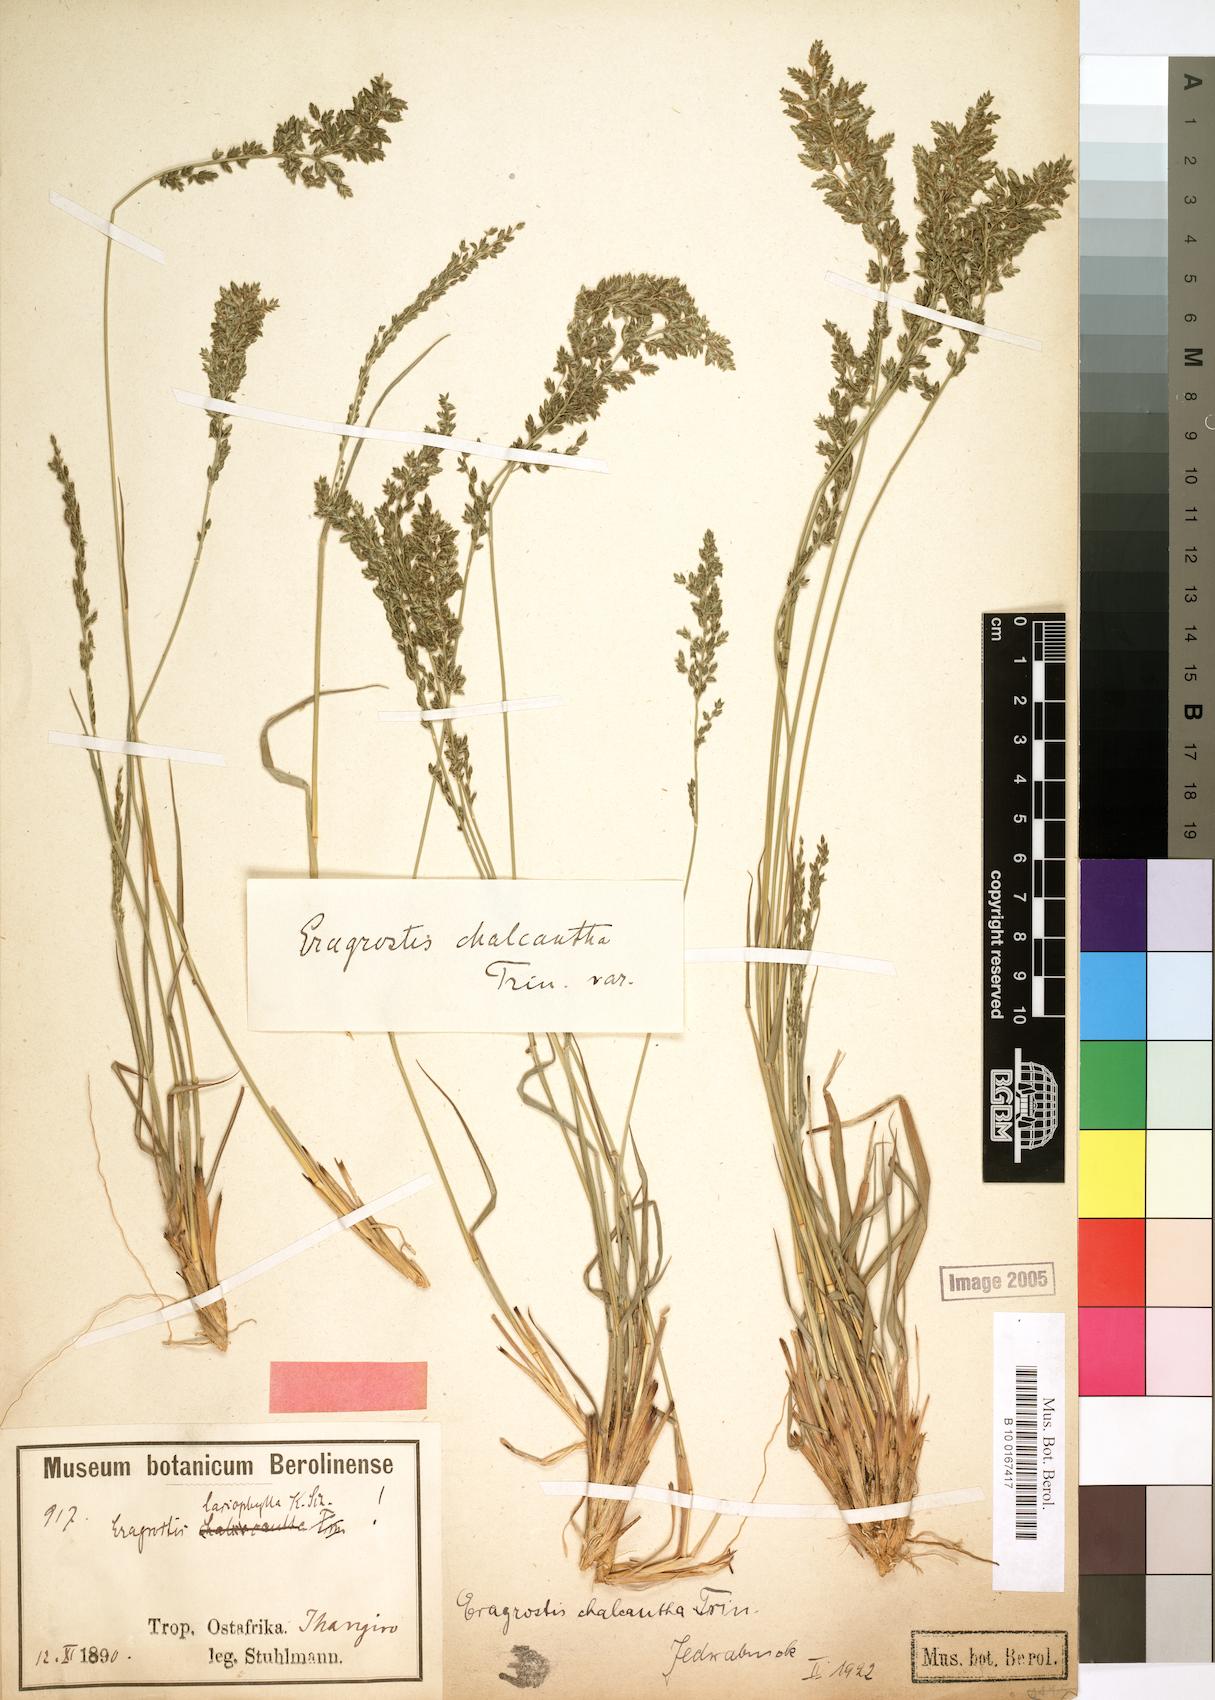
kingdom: Plantae
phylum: Tracheophyta
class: Liliopsida
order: Poales
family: Poaceae
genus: Eragrostis
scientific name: Eragrostis racemosa
